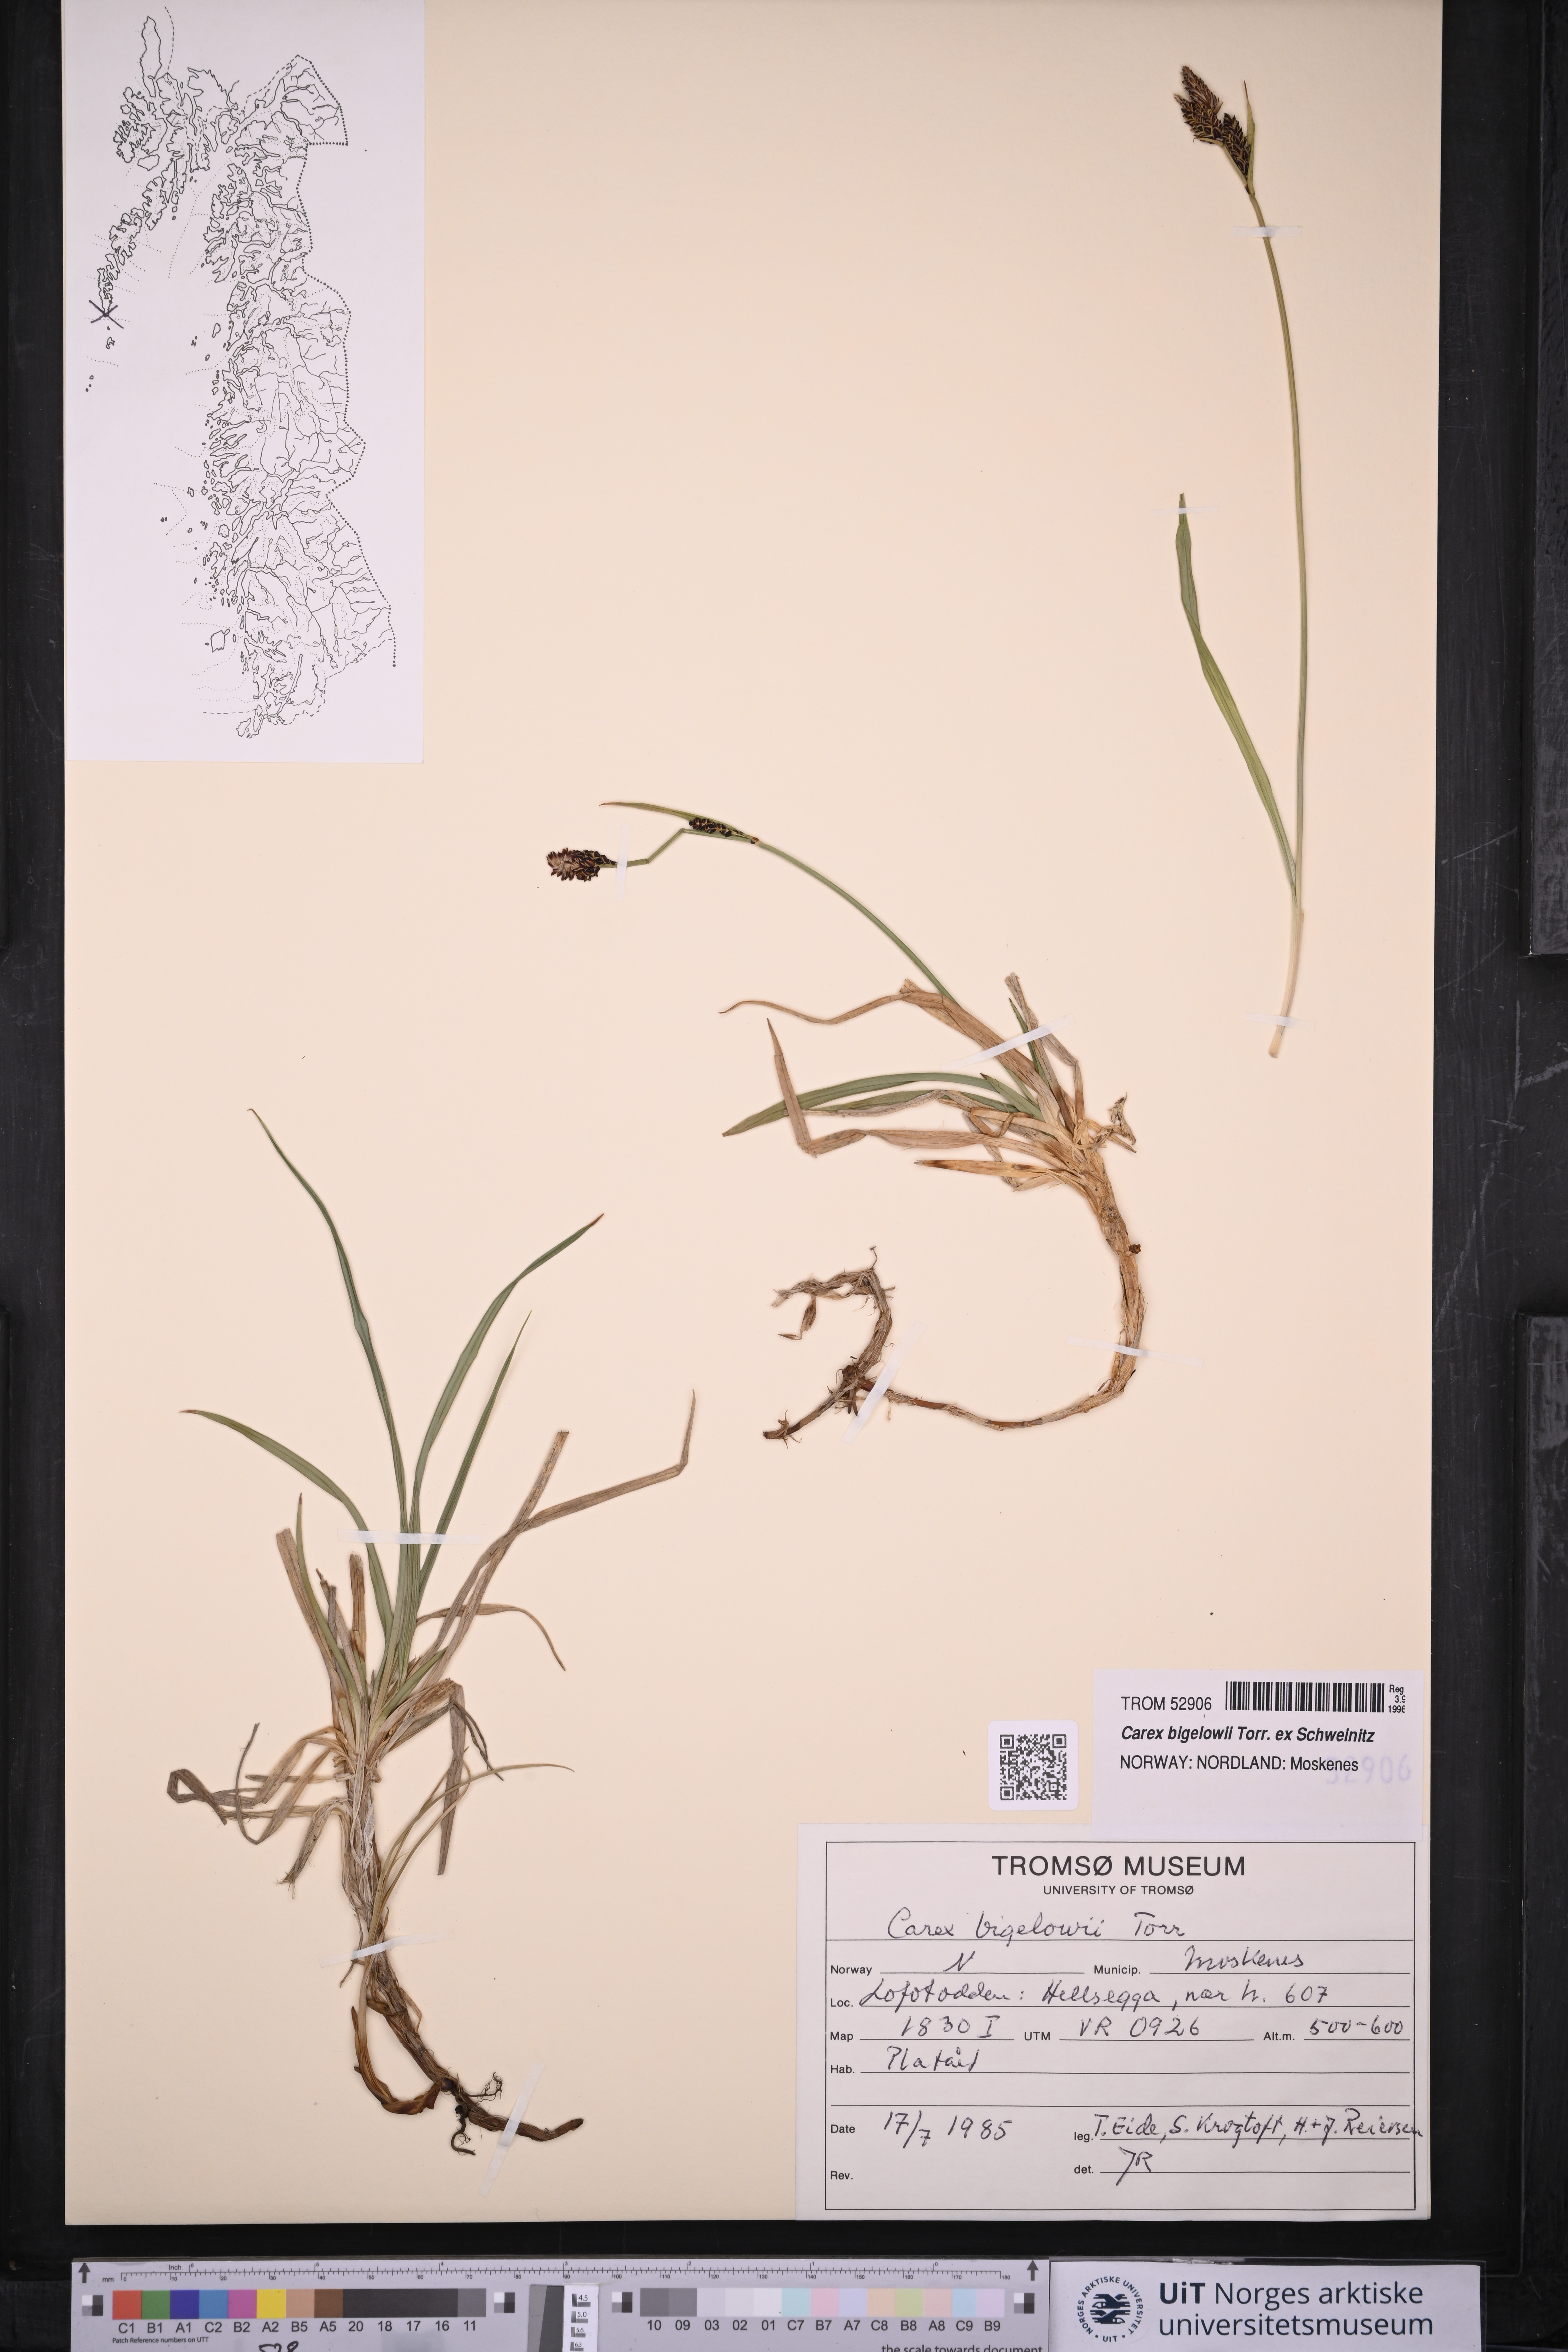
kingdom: Plantae
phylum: Tracheophyta
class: Liliopsida
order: Poales
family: Cyperaceae
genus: Carex
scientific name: Carex bigelowii
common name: Stiff sedge
